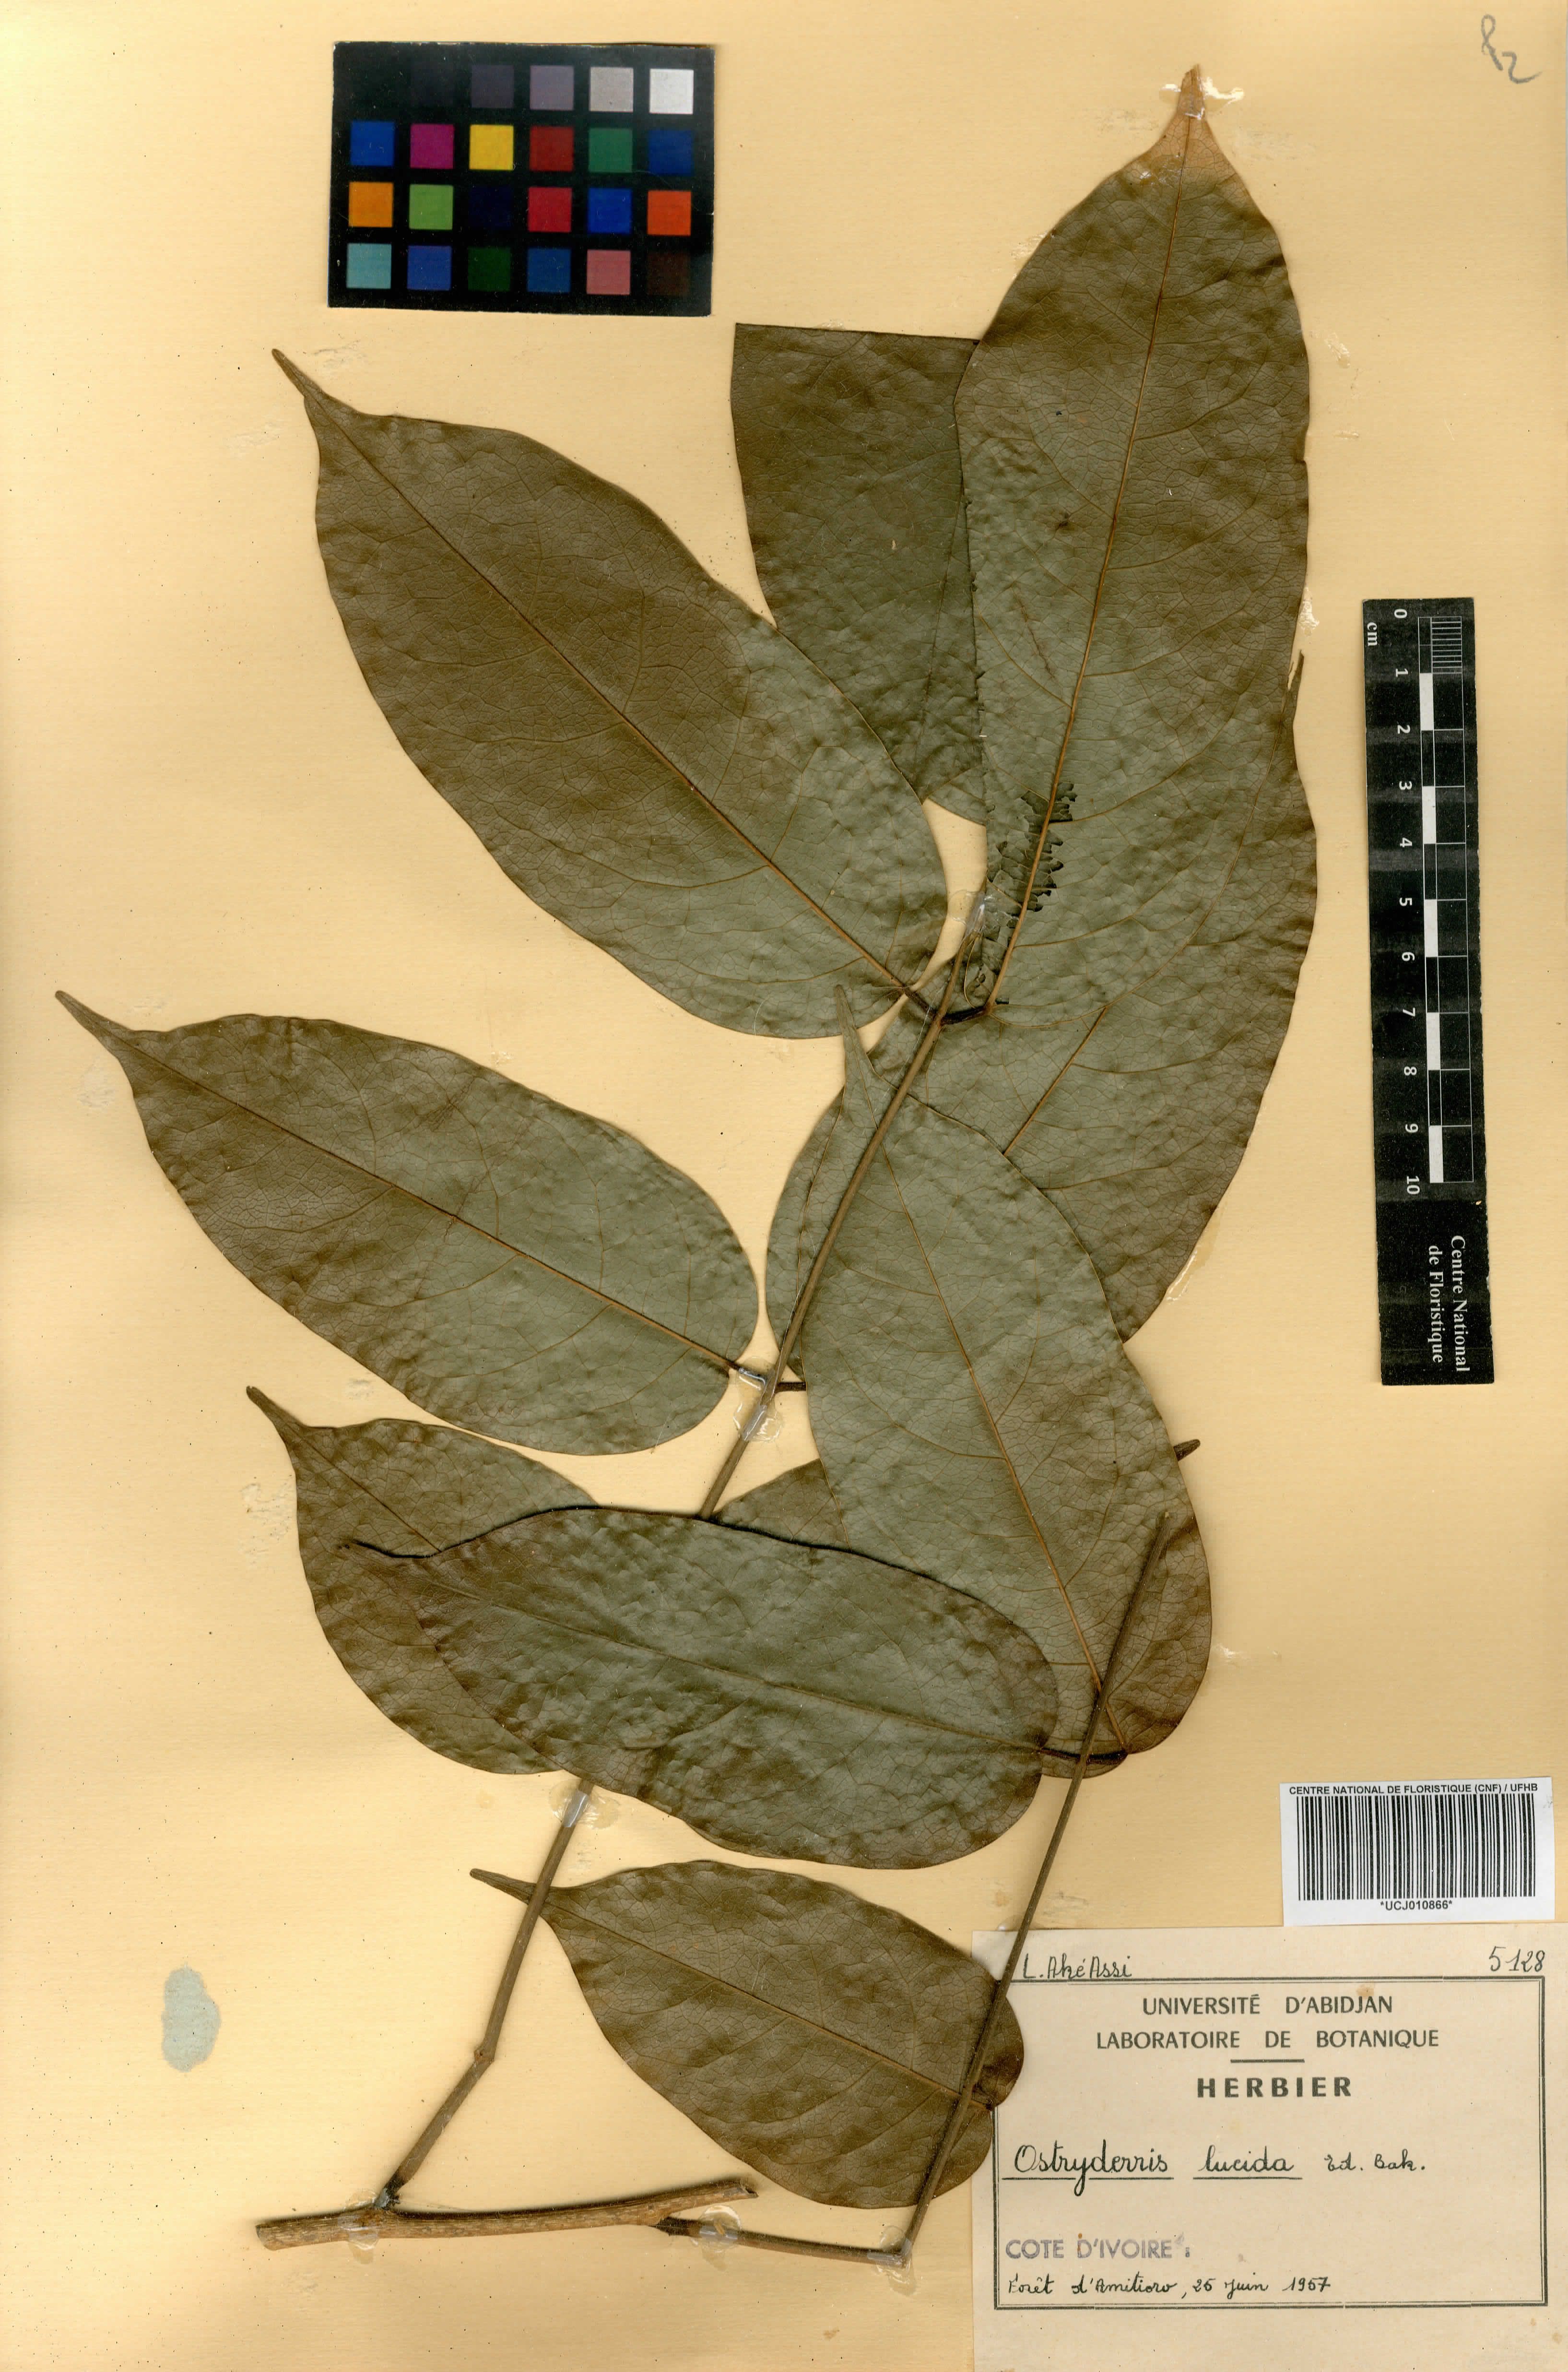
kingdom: Plantae
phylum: Tracheophyta
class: Magnoliopsida
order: Fabales
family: Fabaceae
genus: Aganope
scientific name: Aganope lucida
